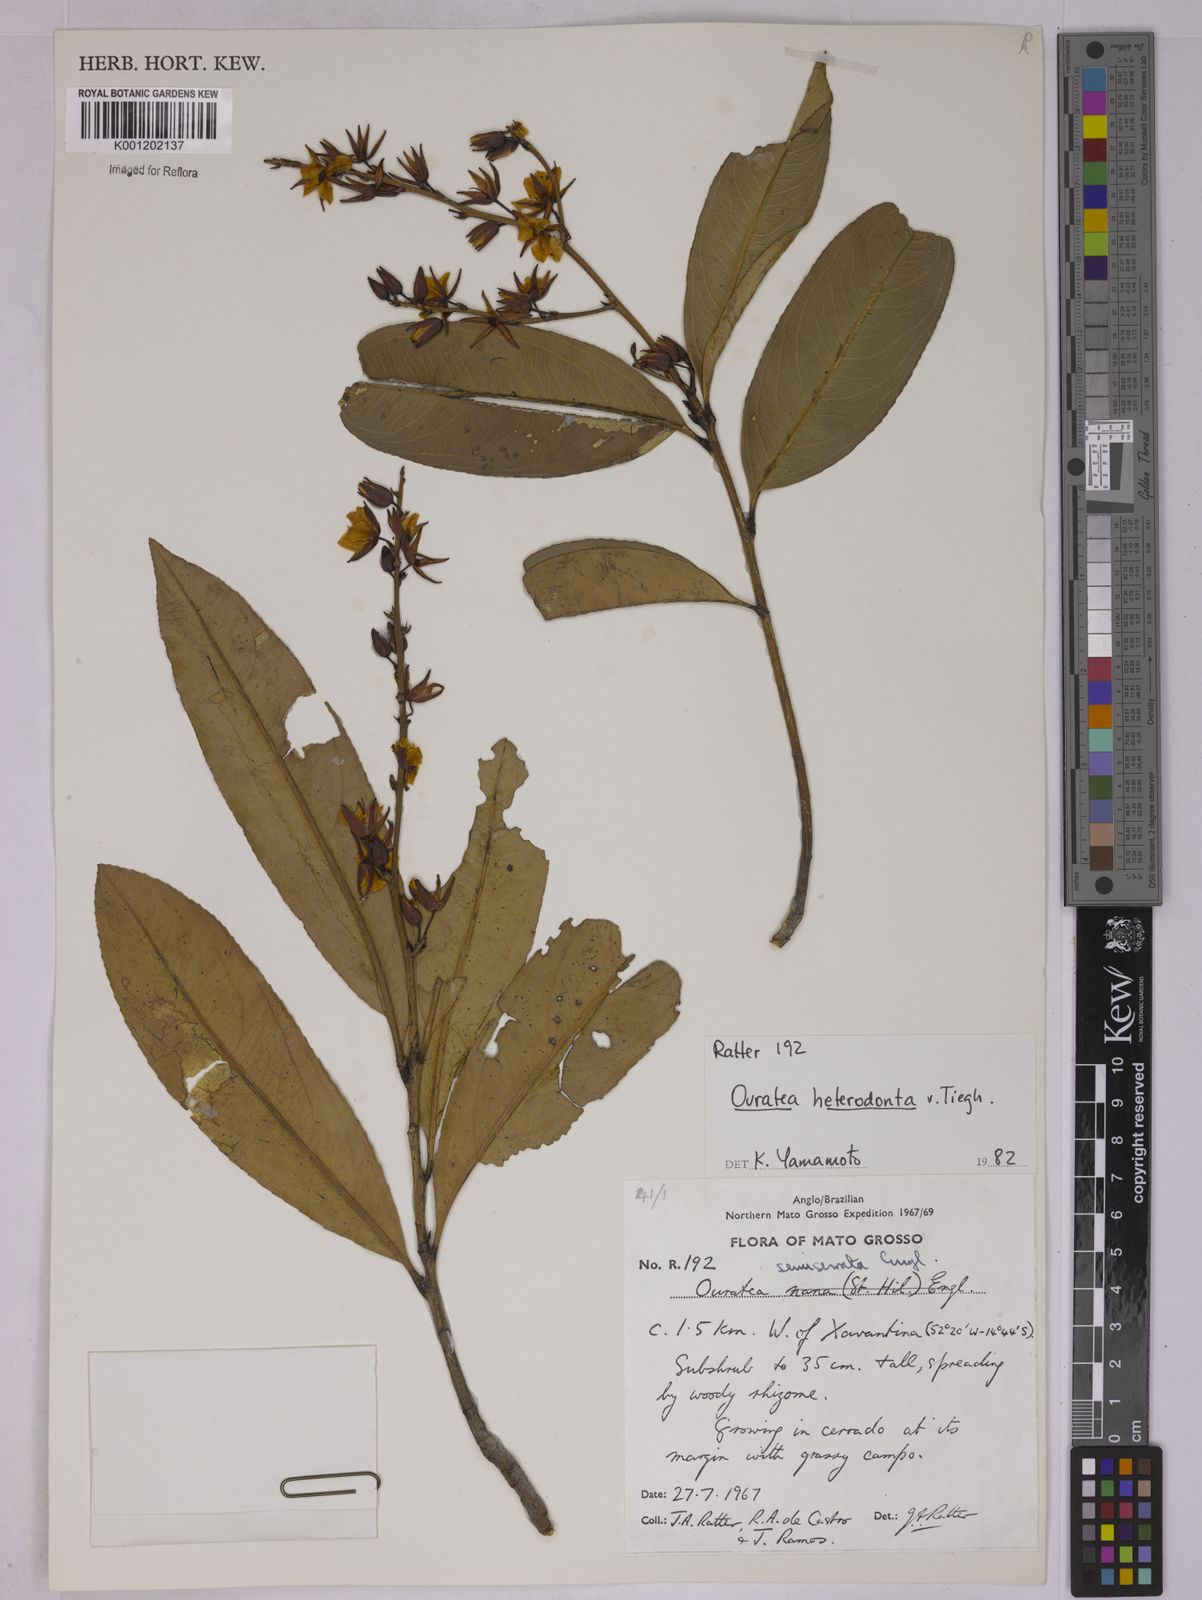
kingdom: Plantae
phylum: Tracheophyta
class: Magnoliopsida
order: Malpighiales
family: Ochnaceae
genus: Ouratea
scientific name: Ouratea crassifolia
